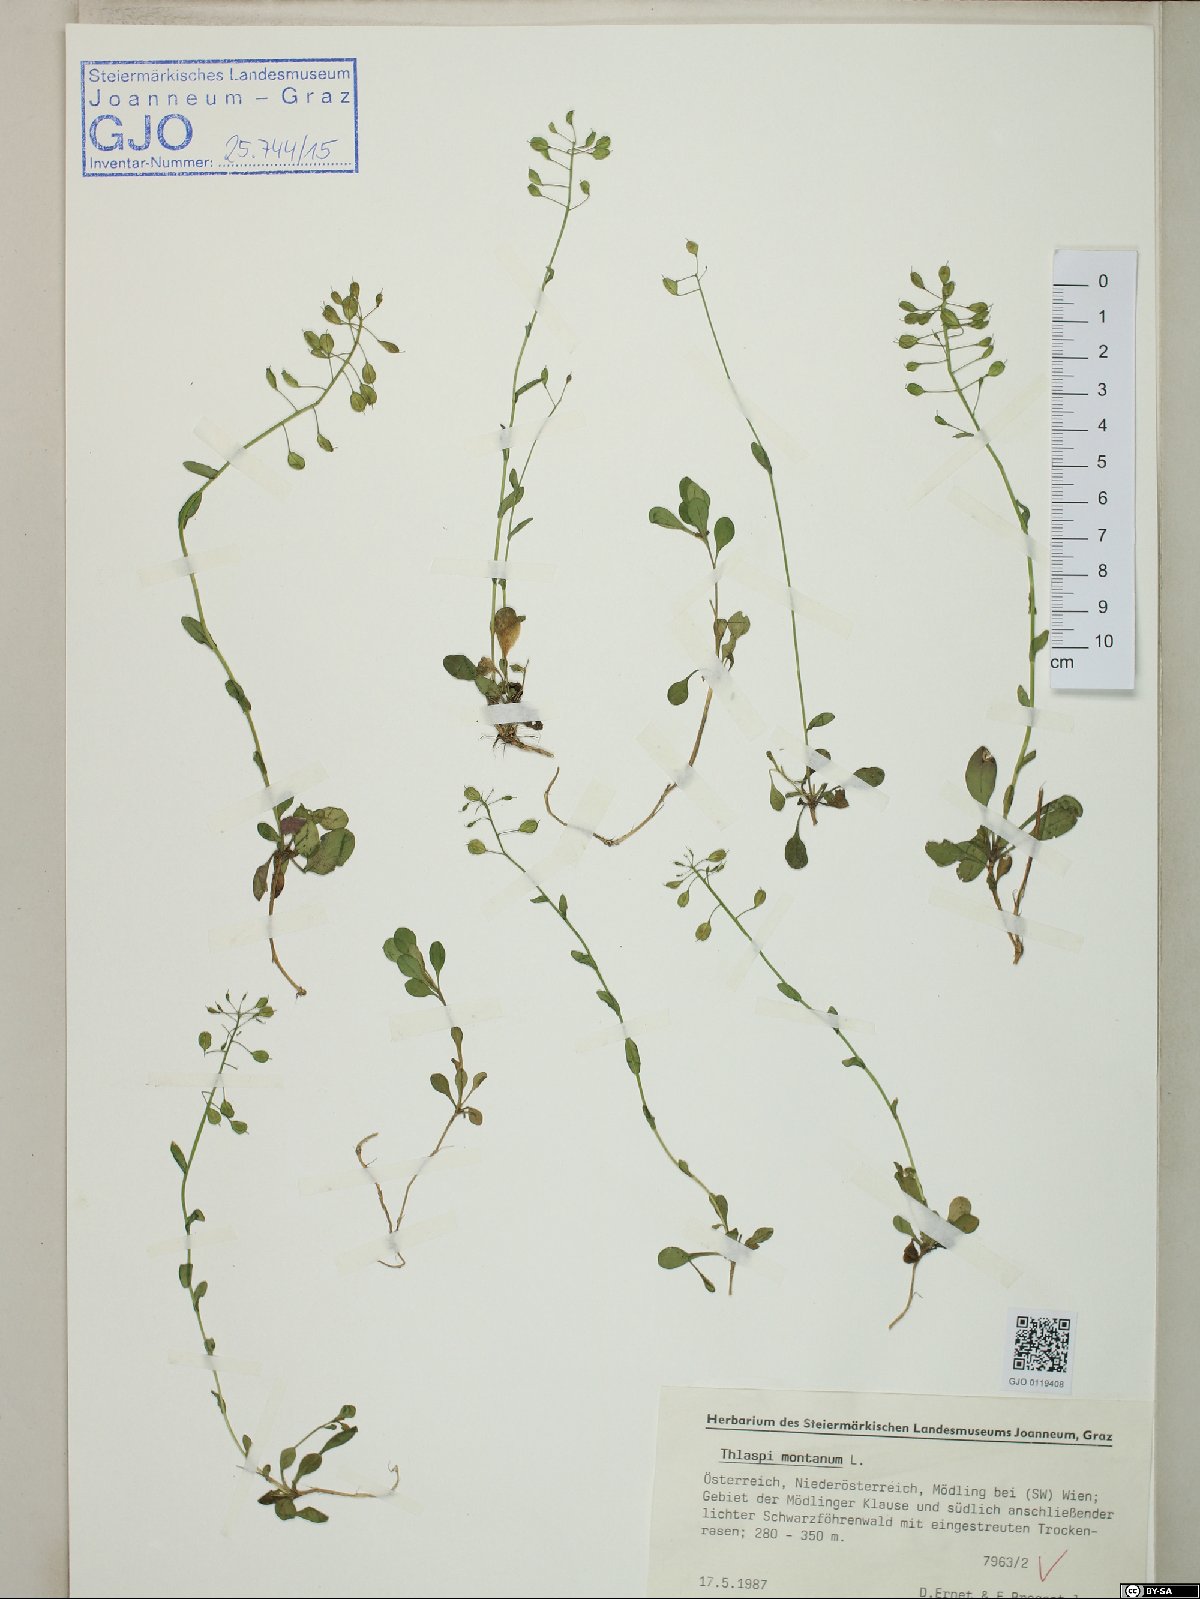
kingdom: Plantae
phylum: Tracheophyta
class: Magnoliopsida
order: Brassicales
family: Brassicaceae
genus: Noccaea
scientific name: Noccaea montana
